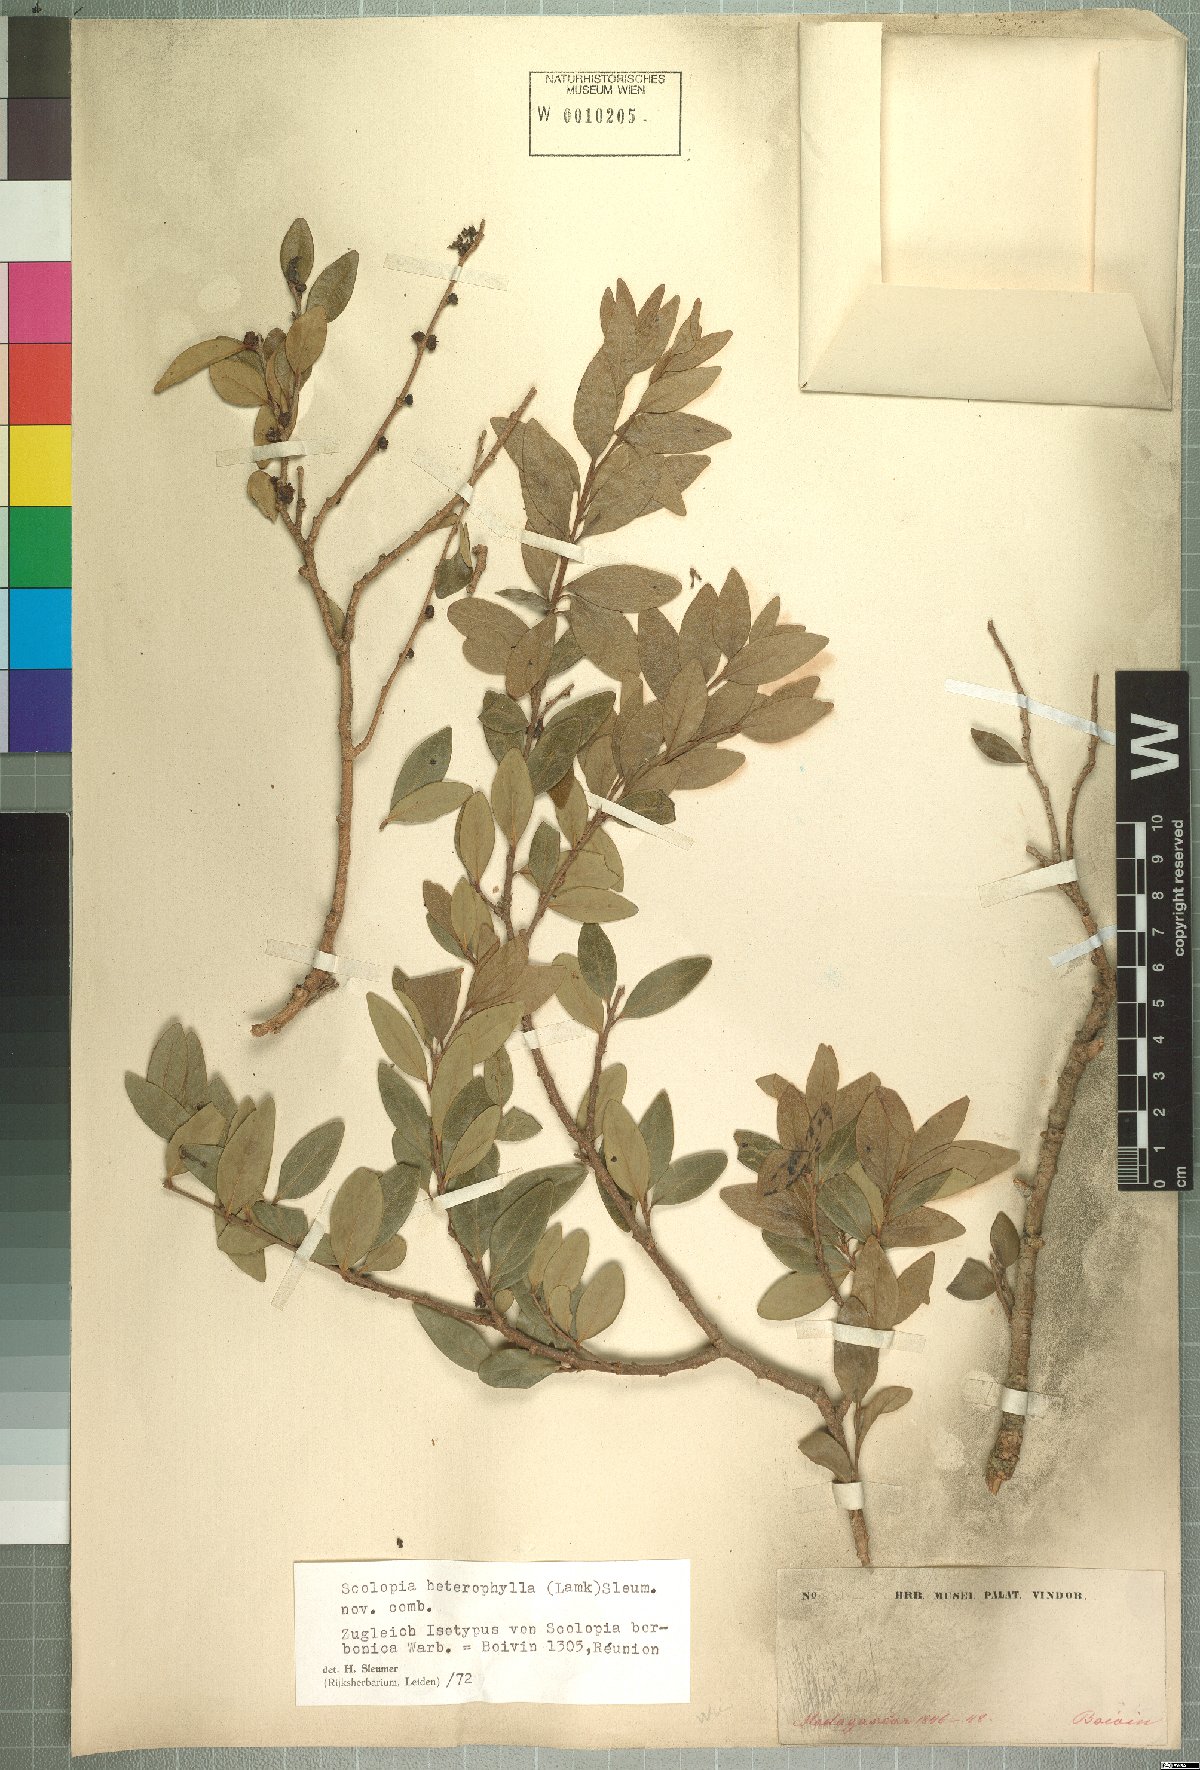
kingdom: Plantae
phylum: Tracheophyta
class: Magnoliopsida
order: Malpighiales
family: Salicaceae
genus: Scolopia
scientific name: Scolopia heterophylla
